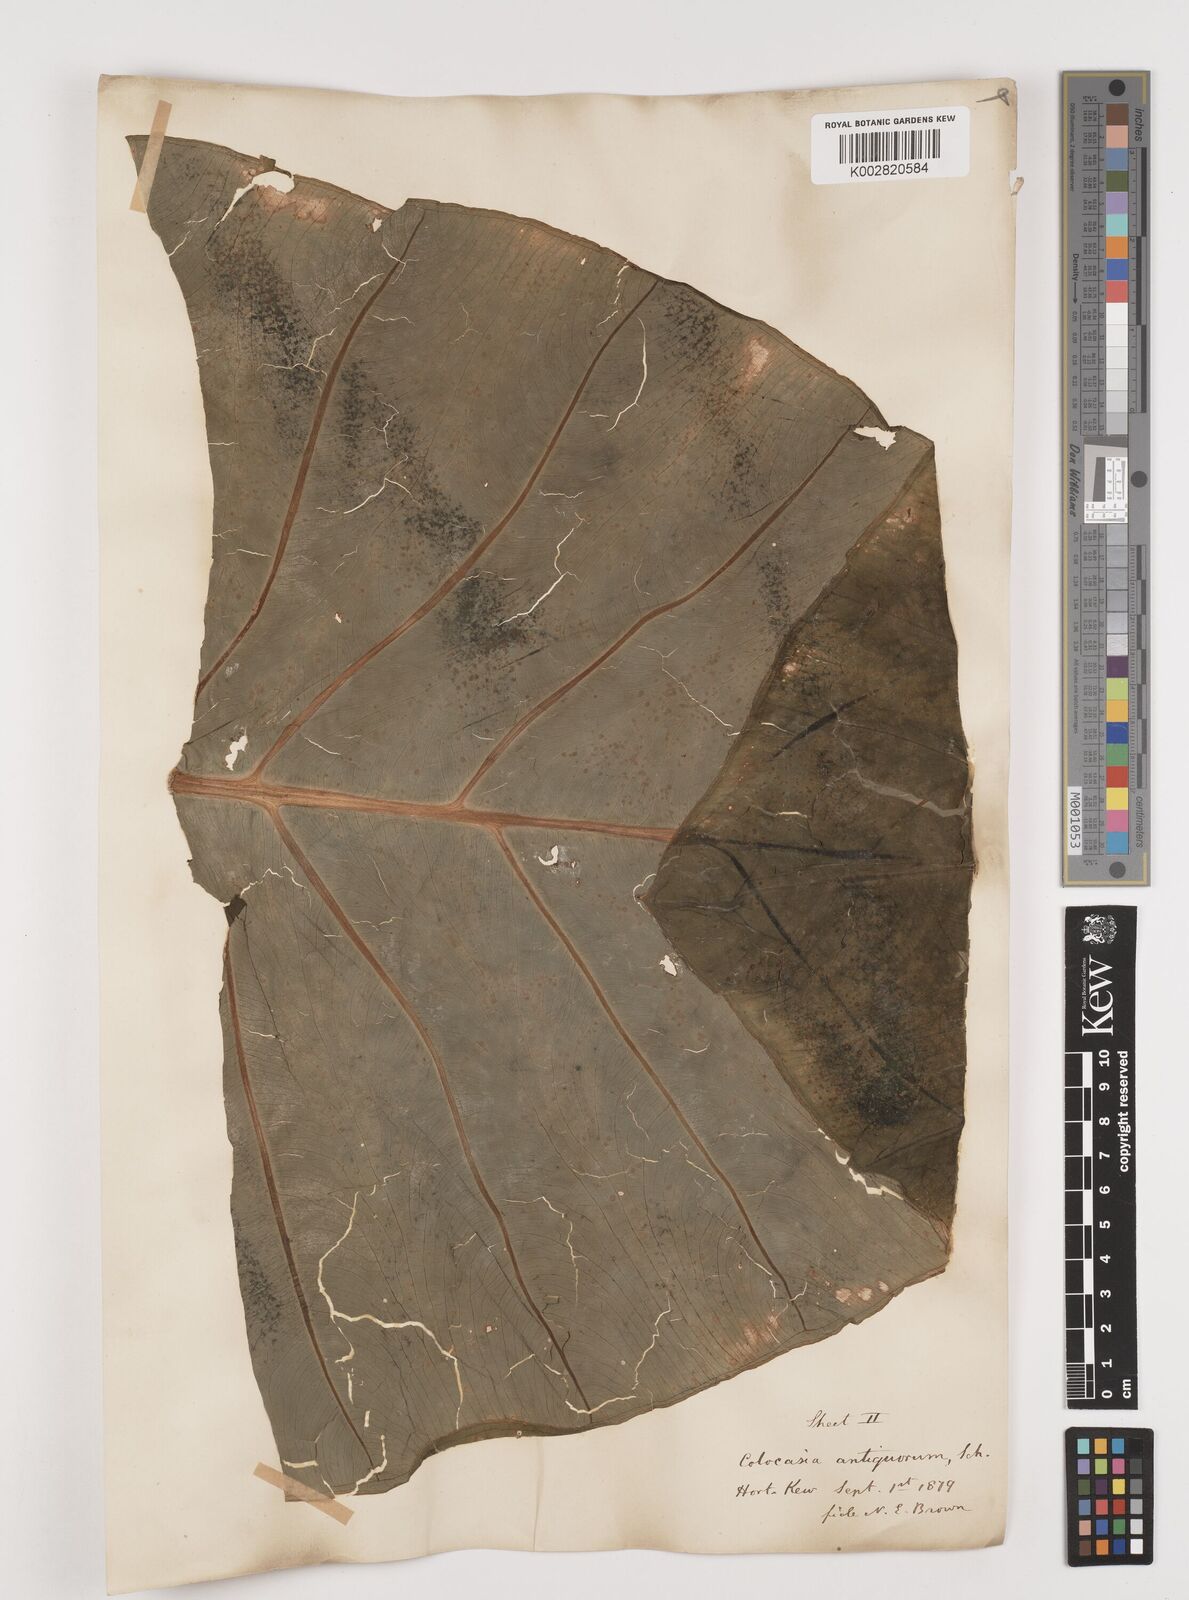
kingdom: Plantae
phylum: Tracheophyta
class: Liliopsida
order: Alismatales
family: Araceae
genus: Colocasia
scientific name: Colocasia esculenta
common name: Taro
